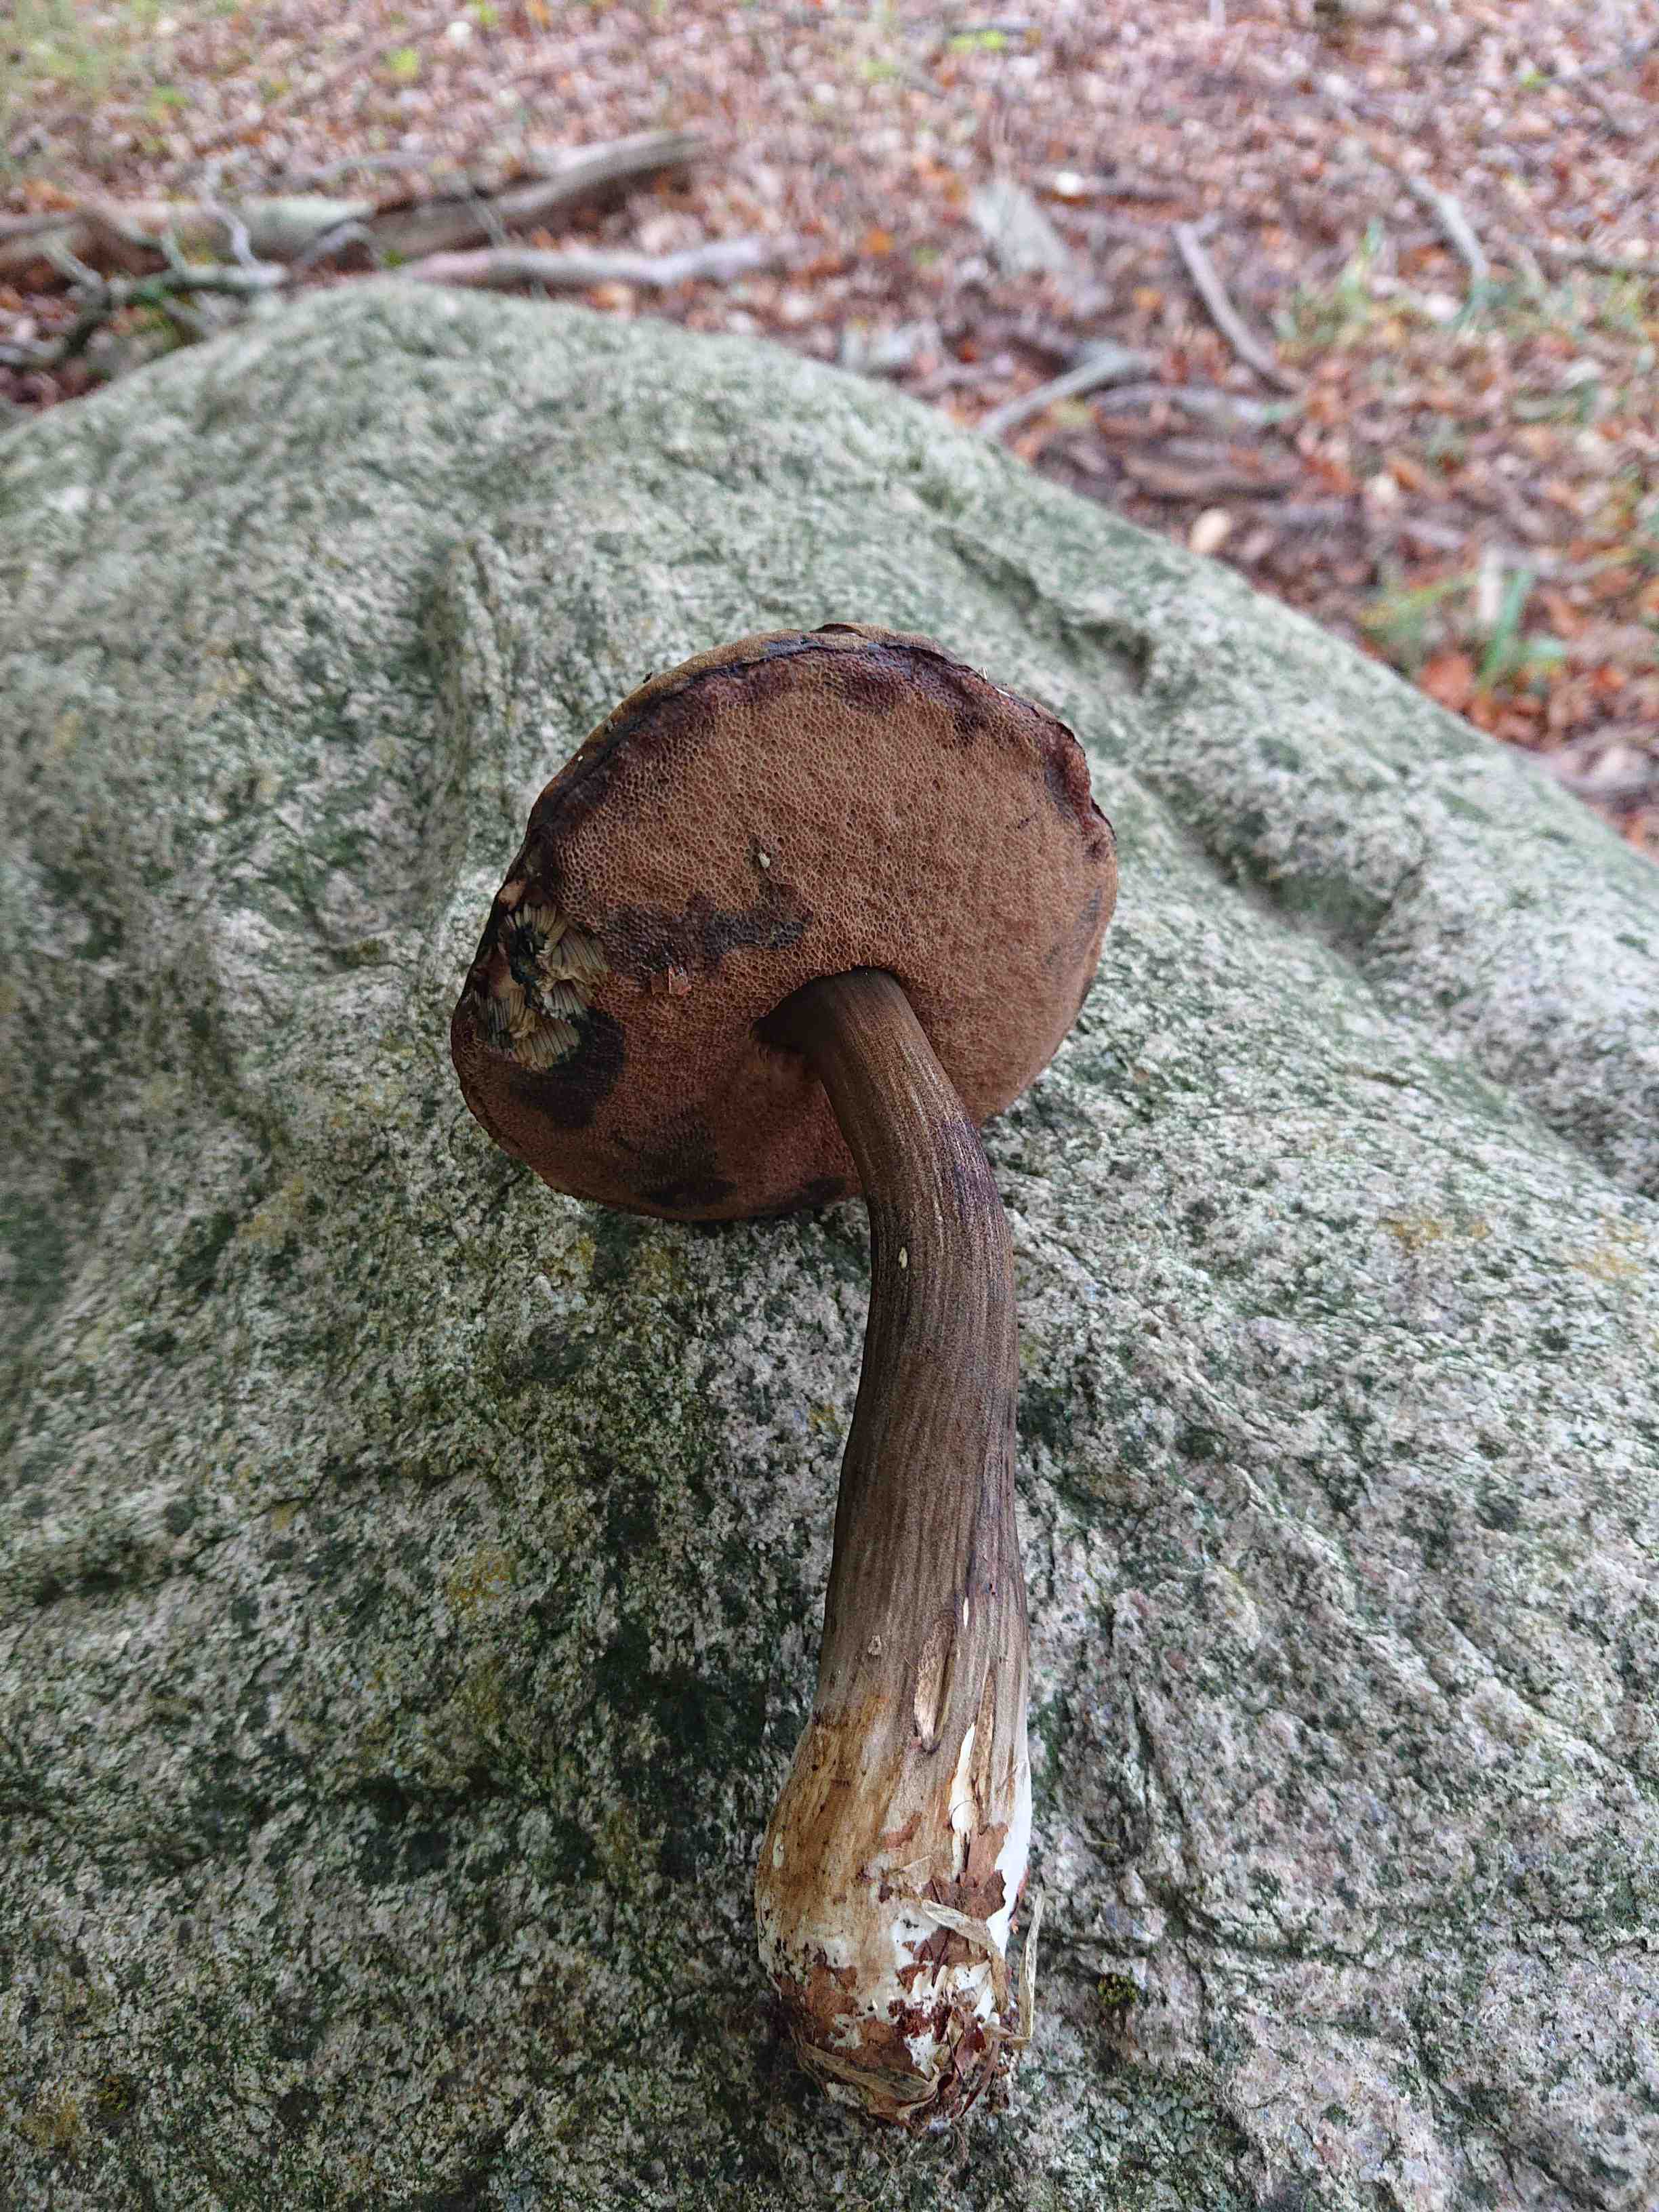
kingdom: Fungi
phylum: Basidiomycota
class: Agaricomycetes
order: Boletales
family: Boletaceae
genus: Porphyrellus
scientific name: Porphyrellus porphyrosporus
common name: sodrørhat
